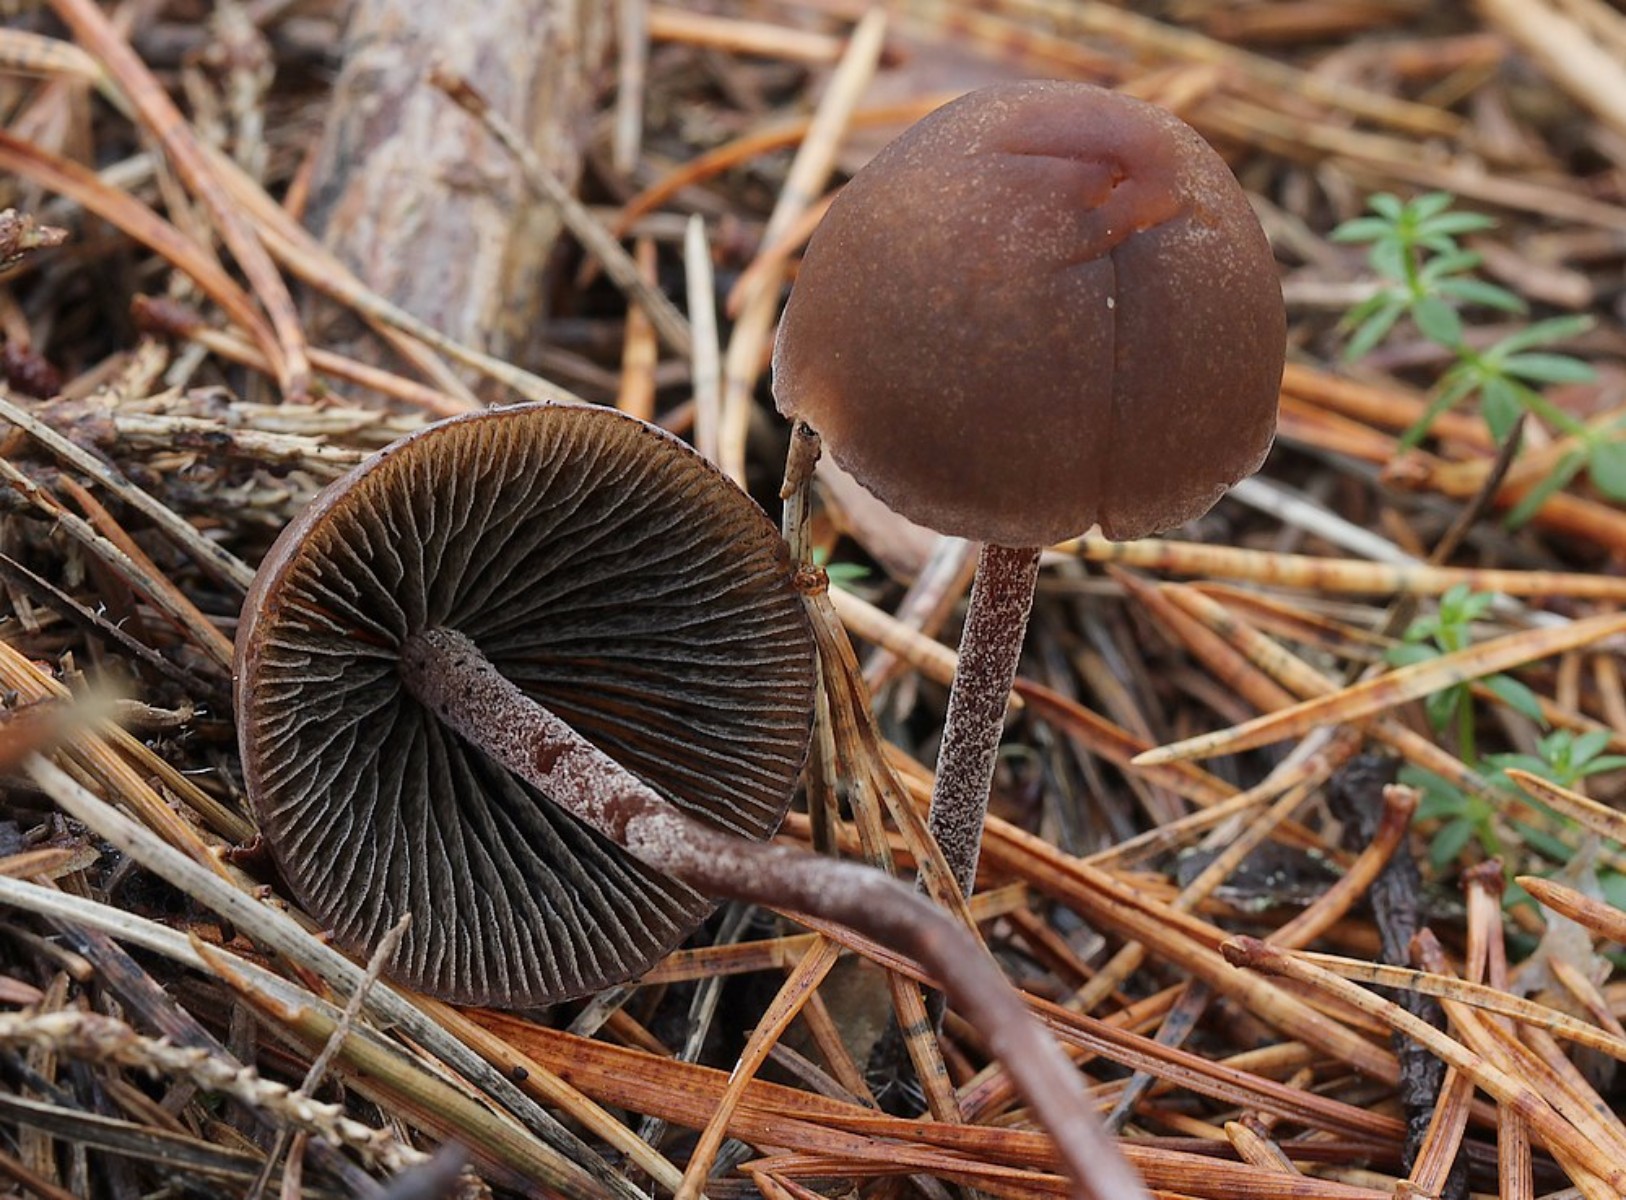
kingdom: Fungi
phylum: Basidiomycota
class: Agaricomycetes
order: Agaricales
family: Bolbitiaceae
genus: Panaeolus
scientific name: Panaeolus
